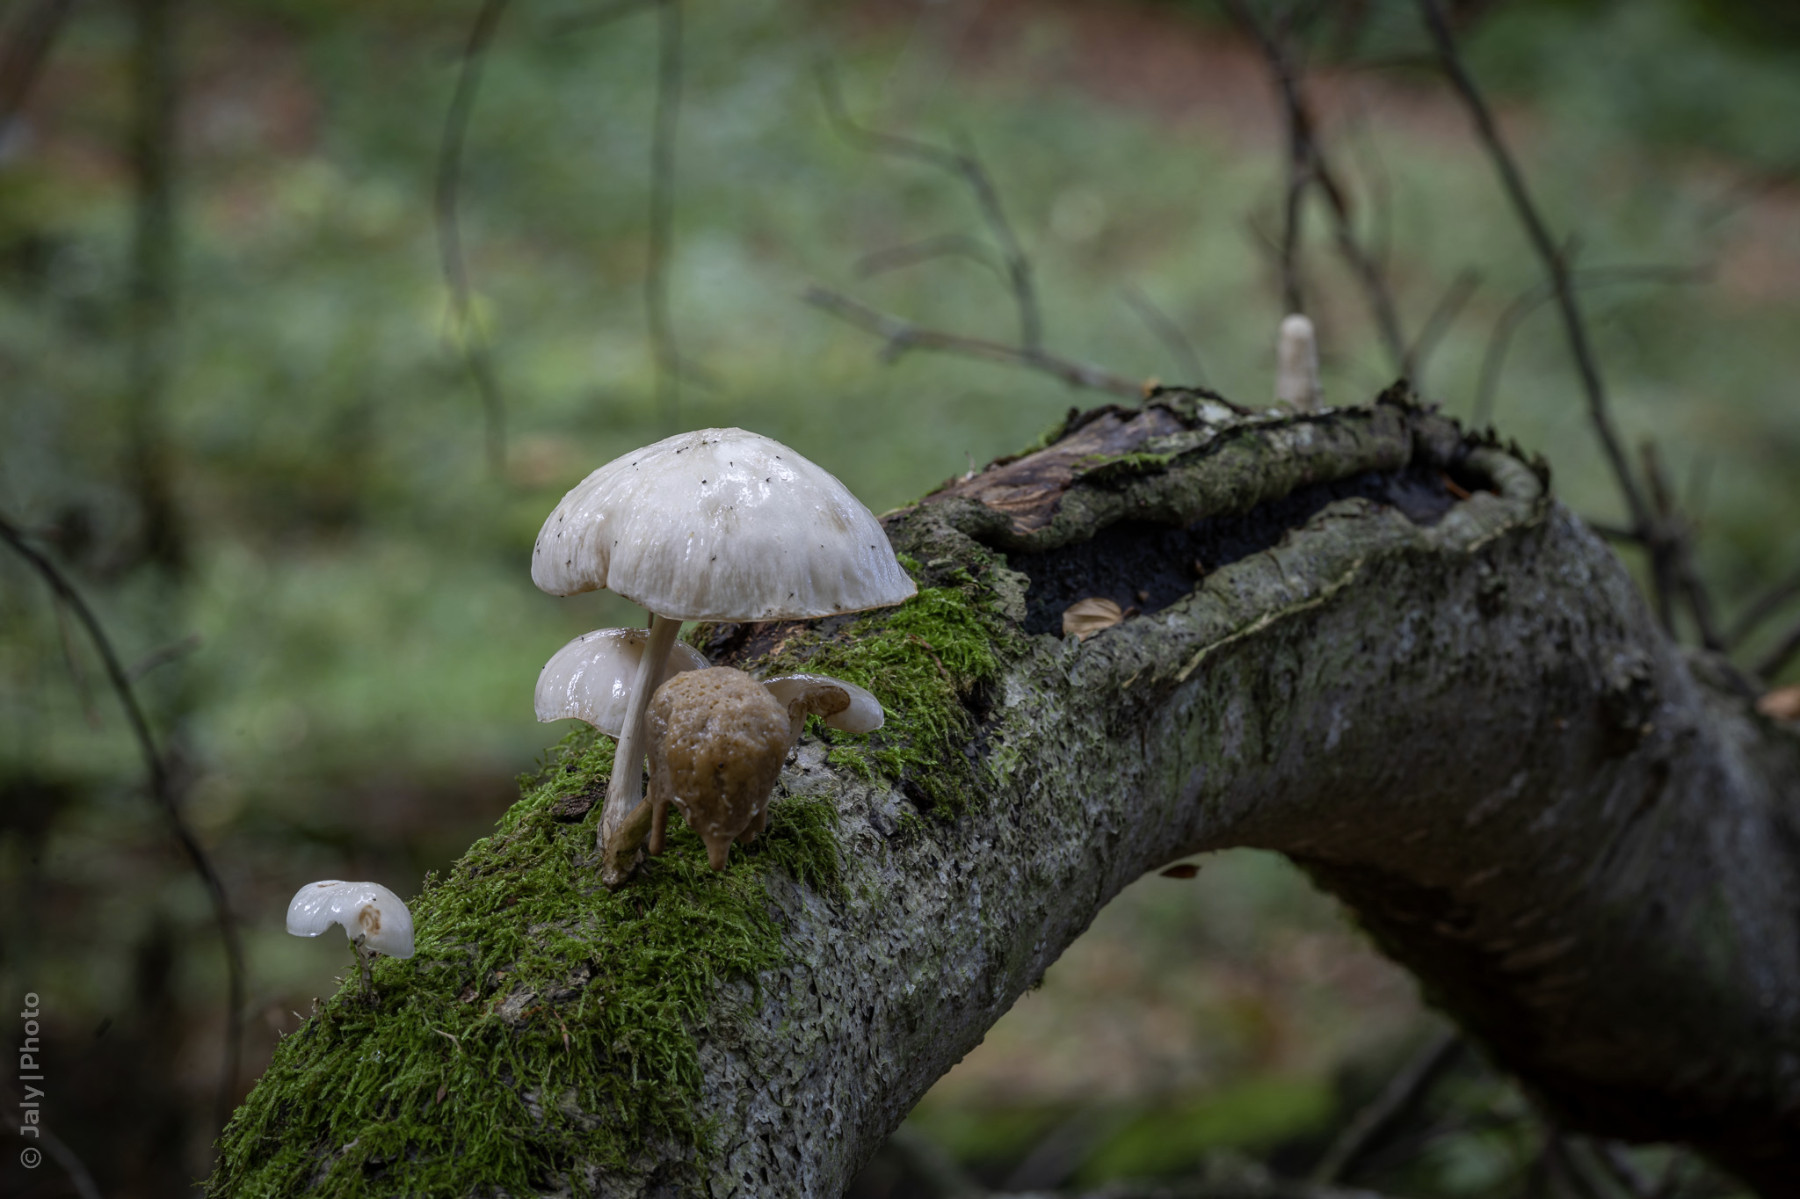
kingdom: Fungi
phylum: Basidiomycota
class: Agaricomycetes
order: Agaricales
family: Physalacriaceae
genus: Mucidula
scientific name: Mucidula mucida
